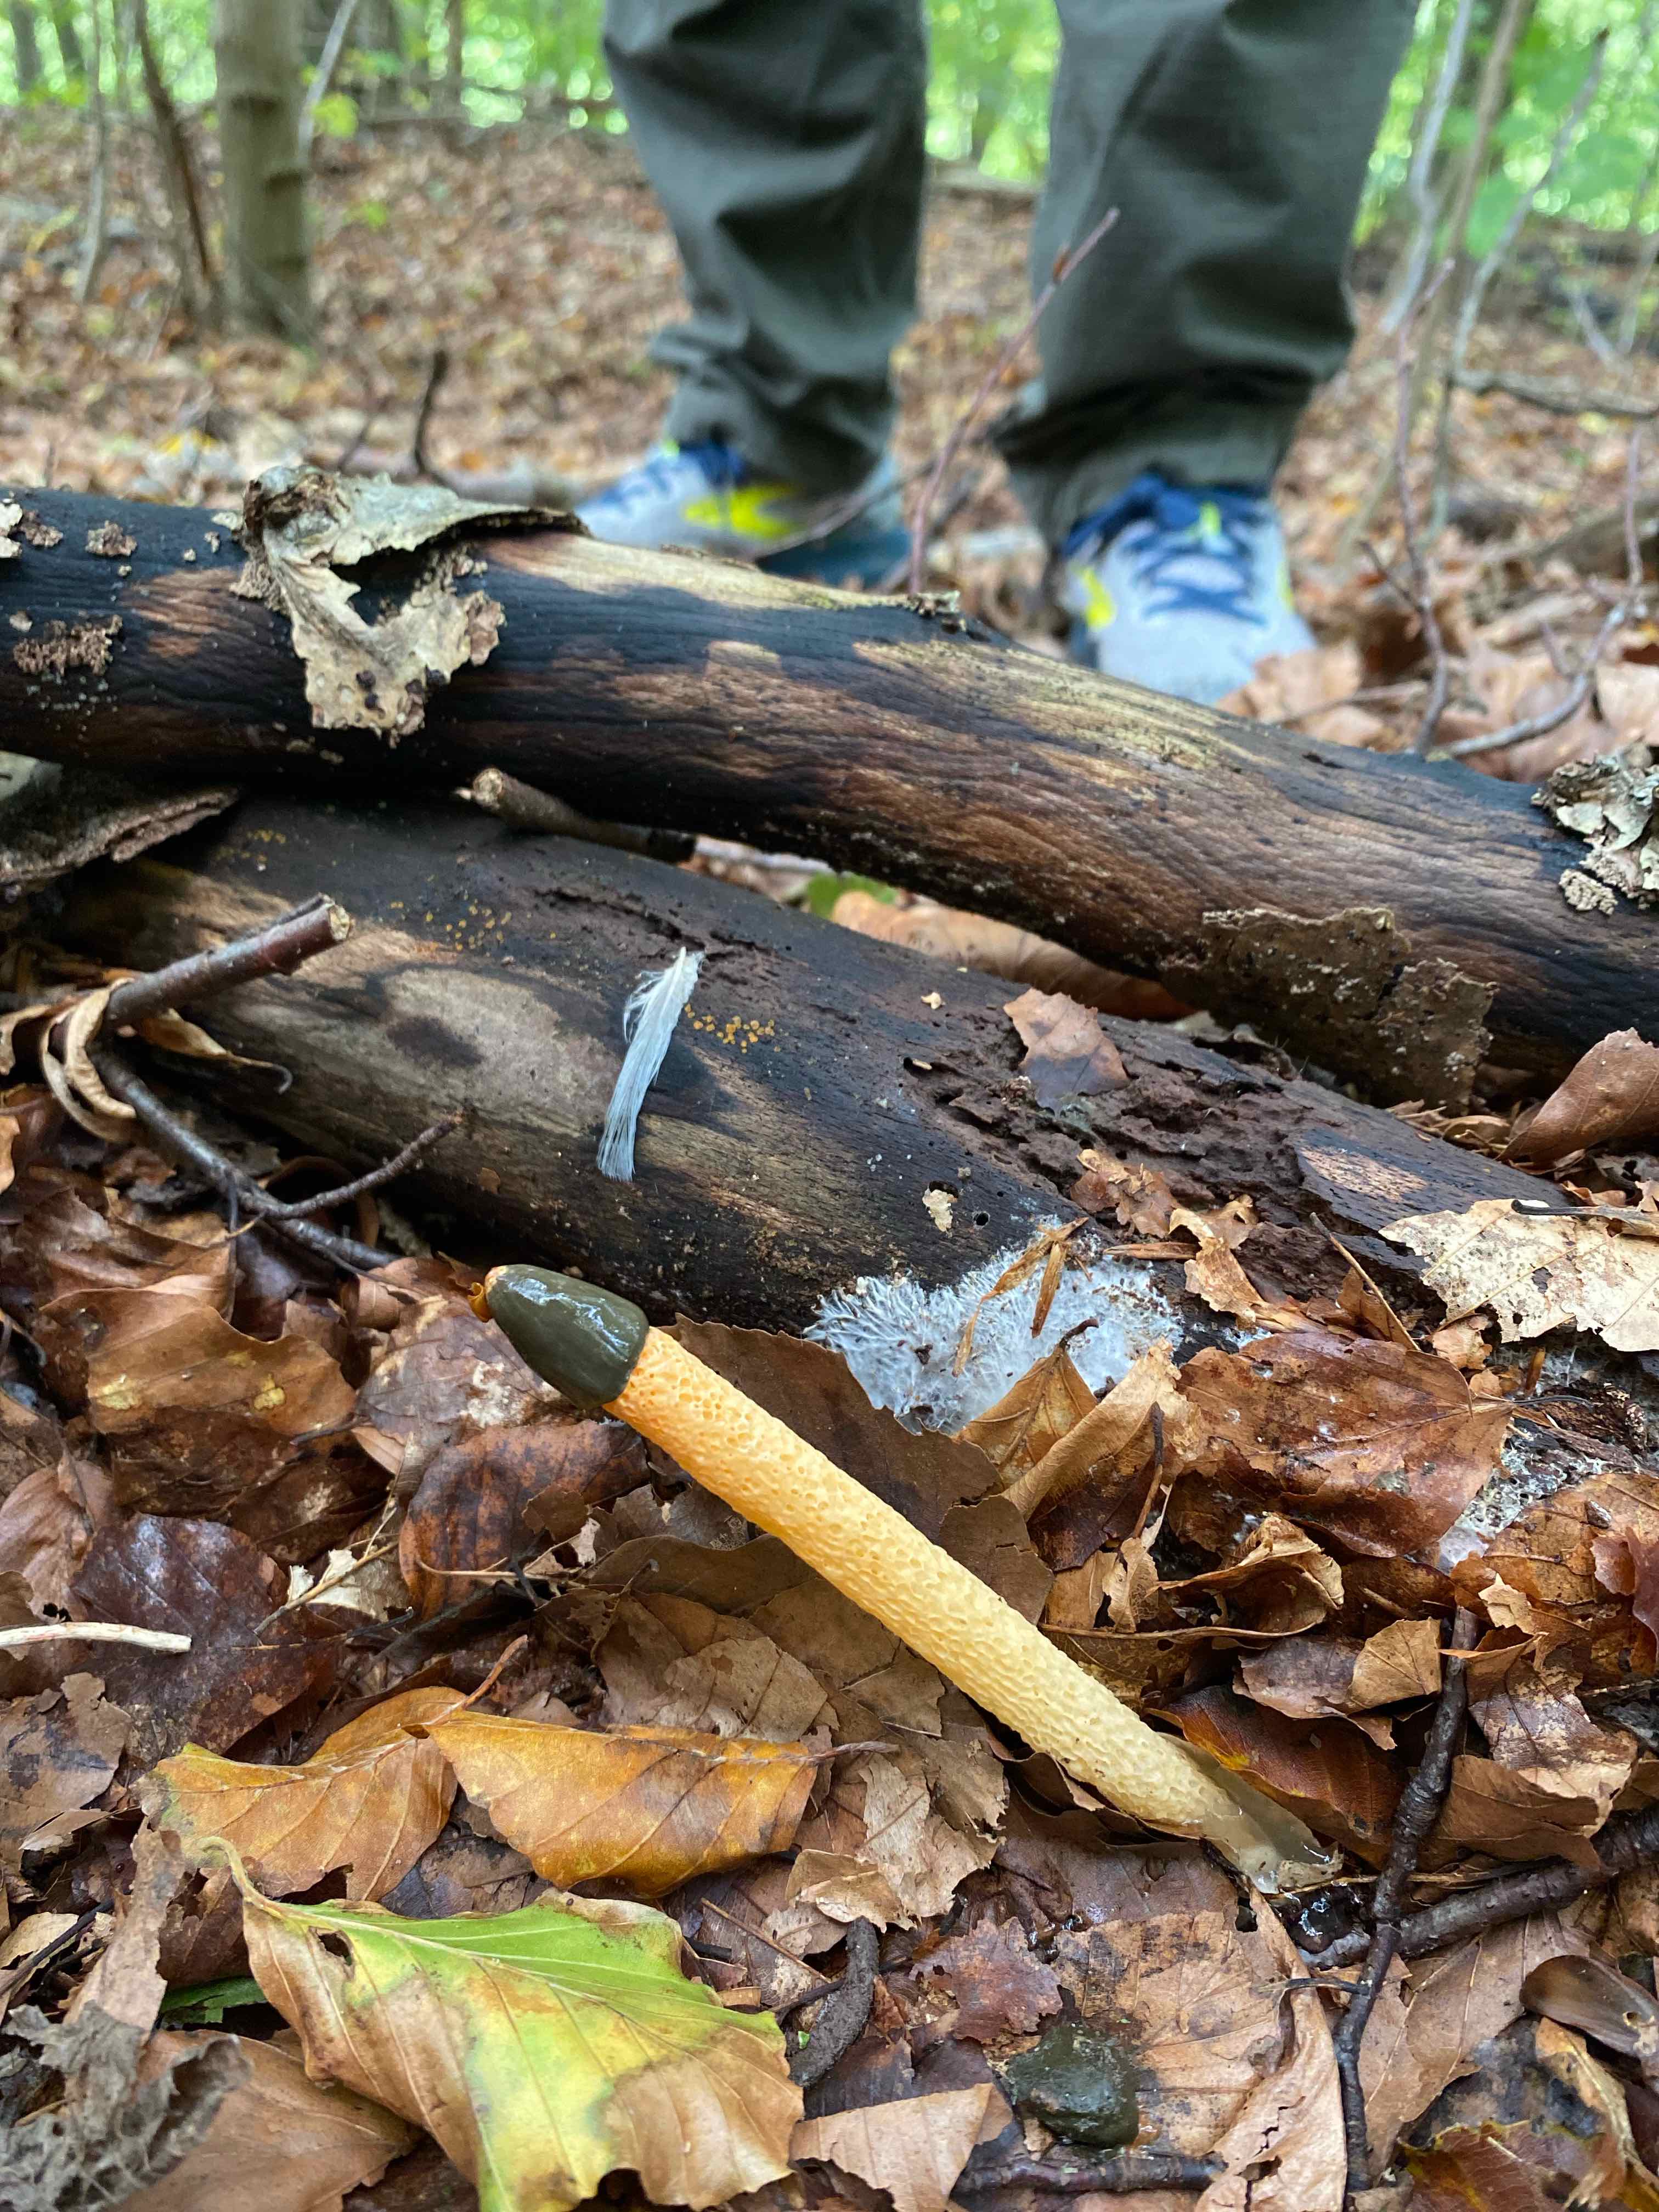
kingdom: Fungi
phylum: Basidiomycota
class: Agaricomycetes
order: Phallales
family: Phallaceae
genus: Mutinus
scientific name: Mutinus caninus
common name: hunde-stinksvamp
